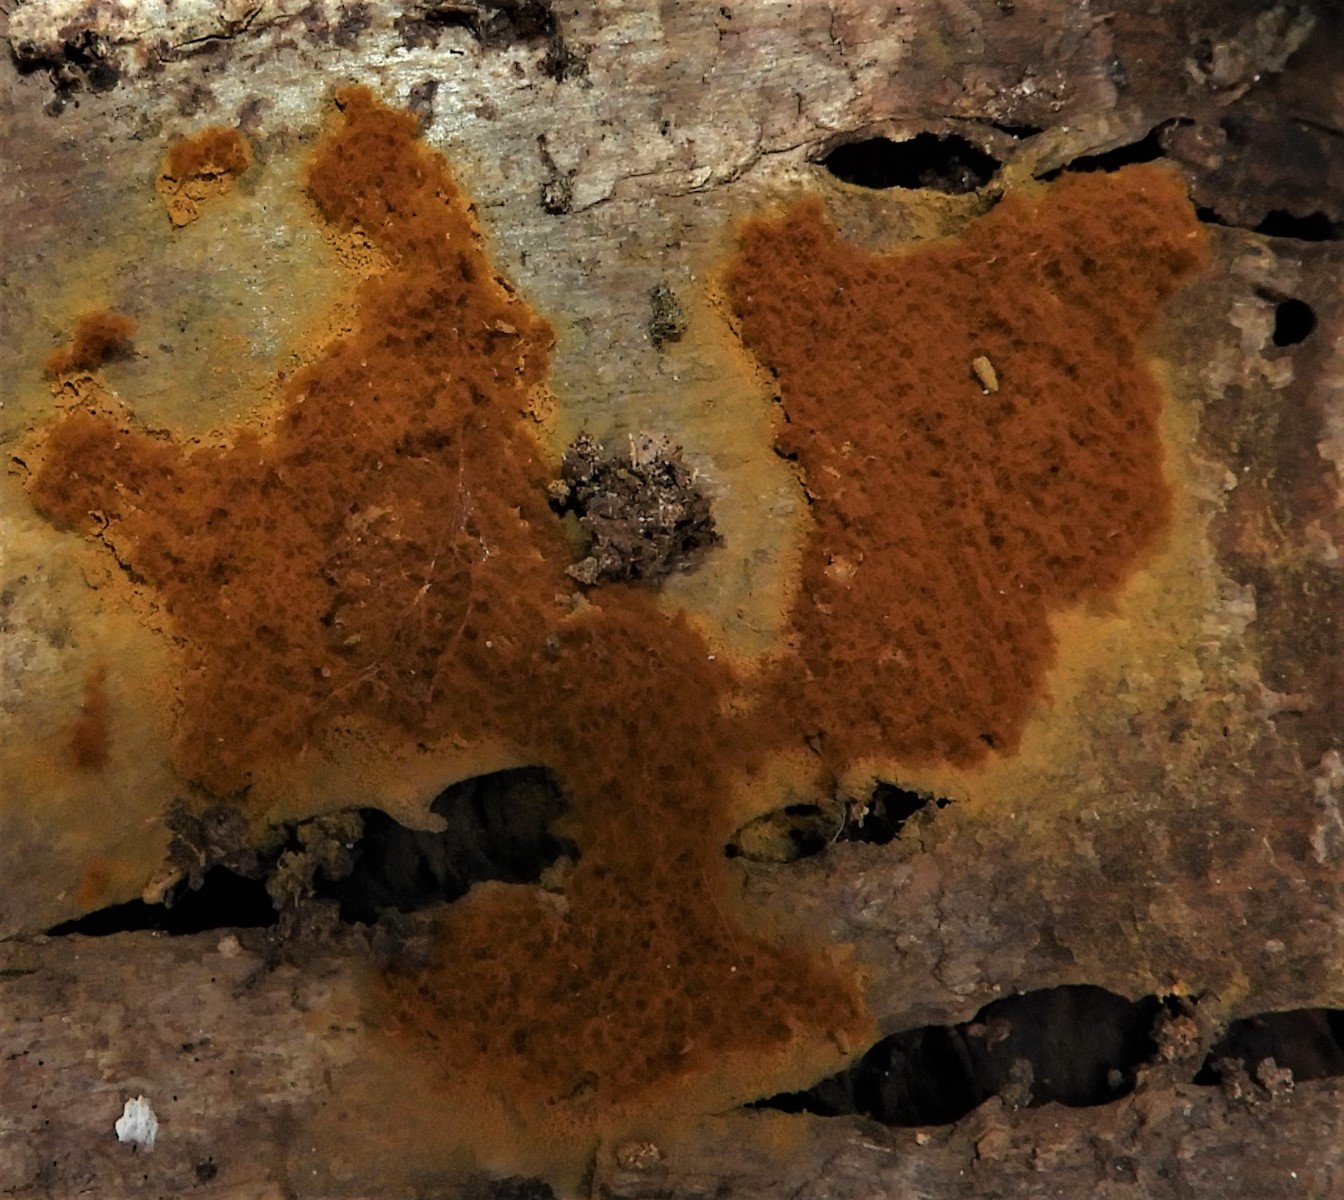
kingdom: Protozoa
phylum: Mycetozoa
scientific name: Mycetozoa
